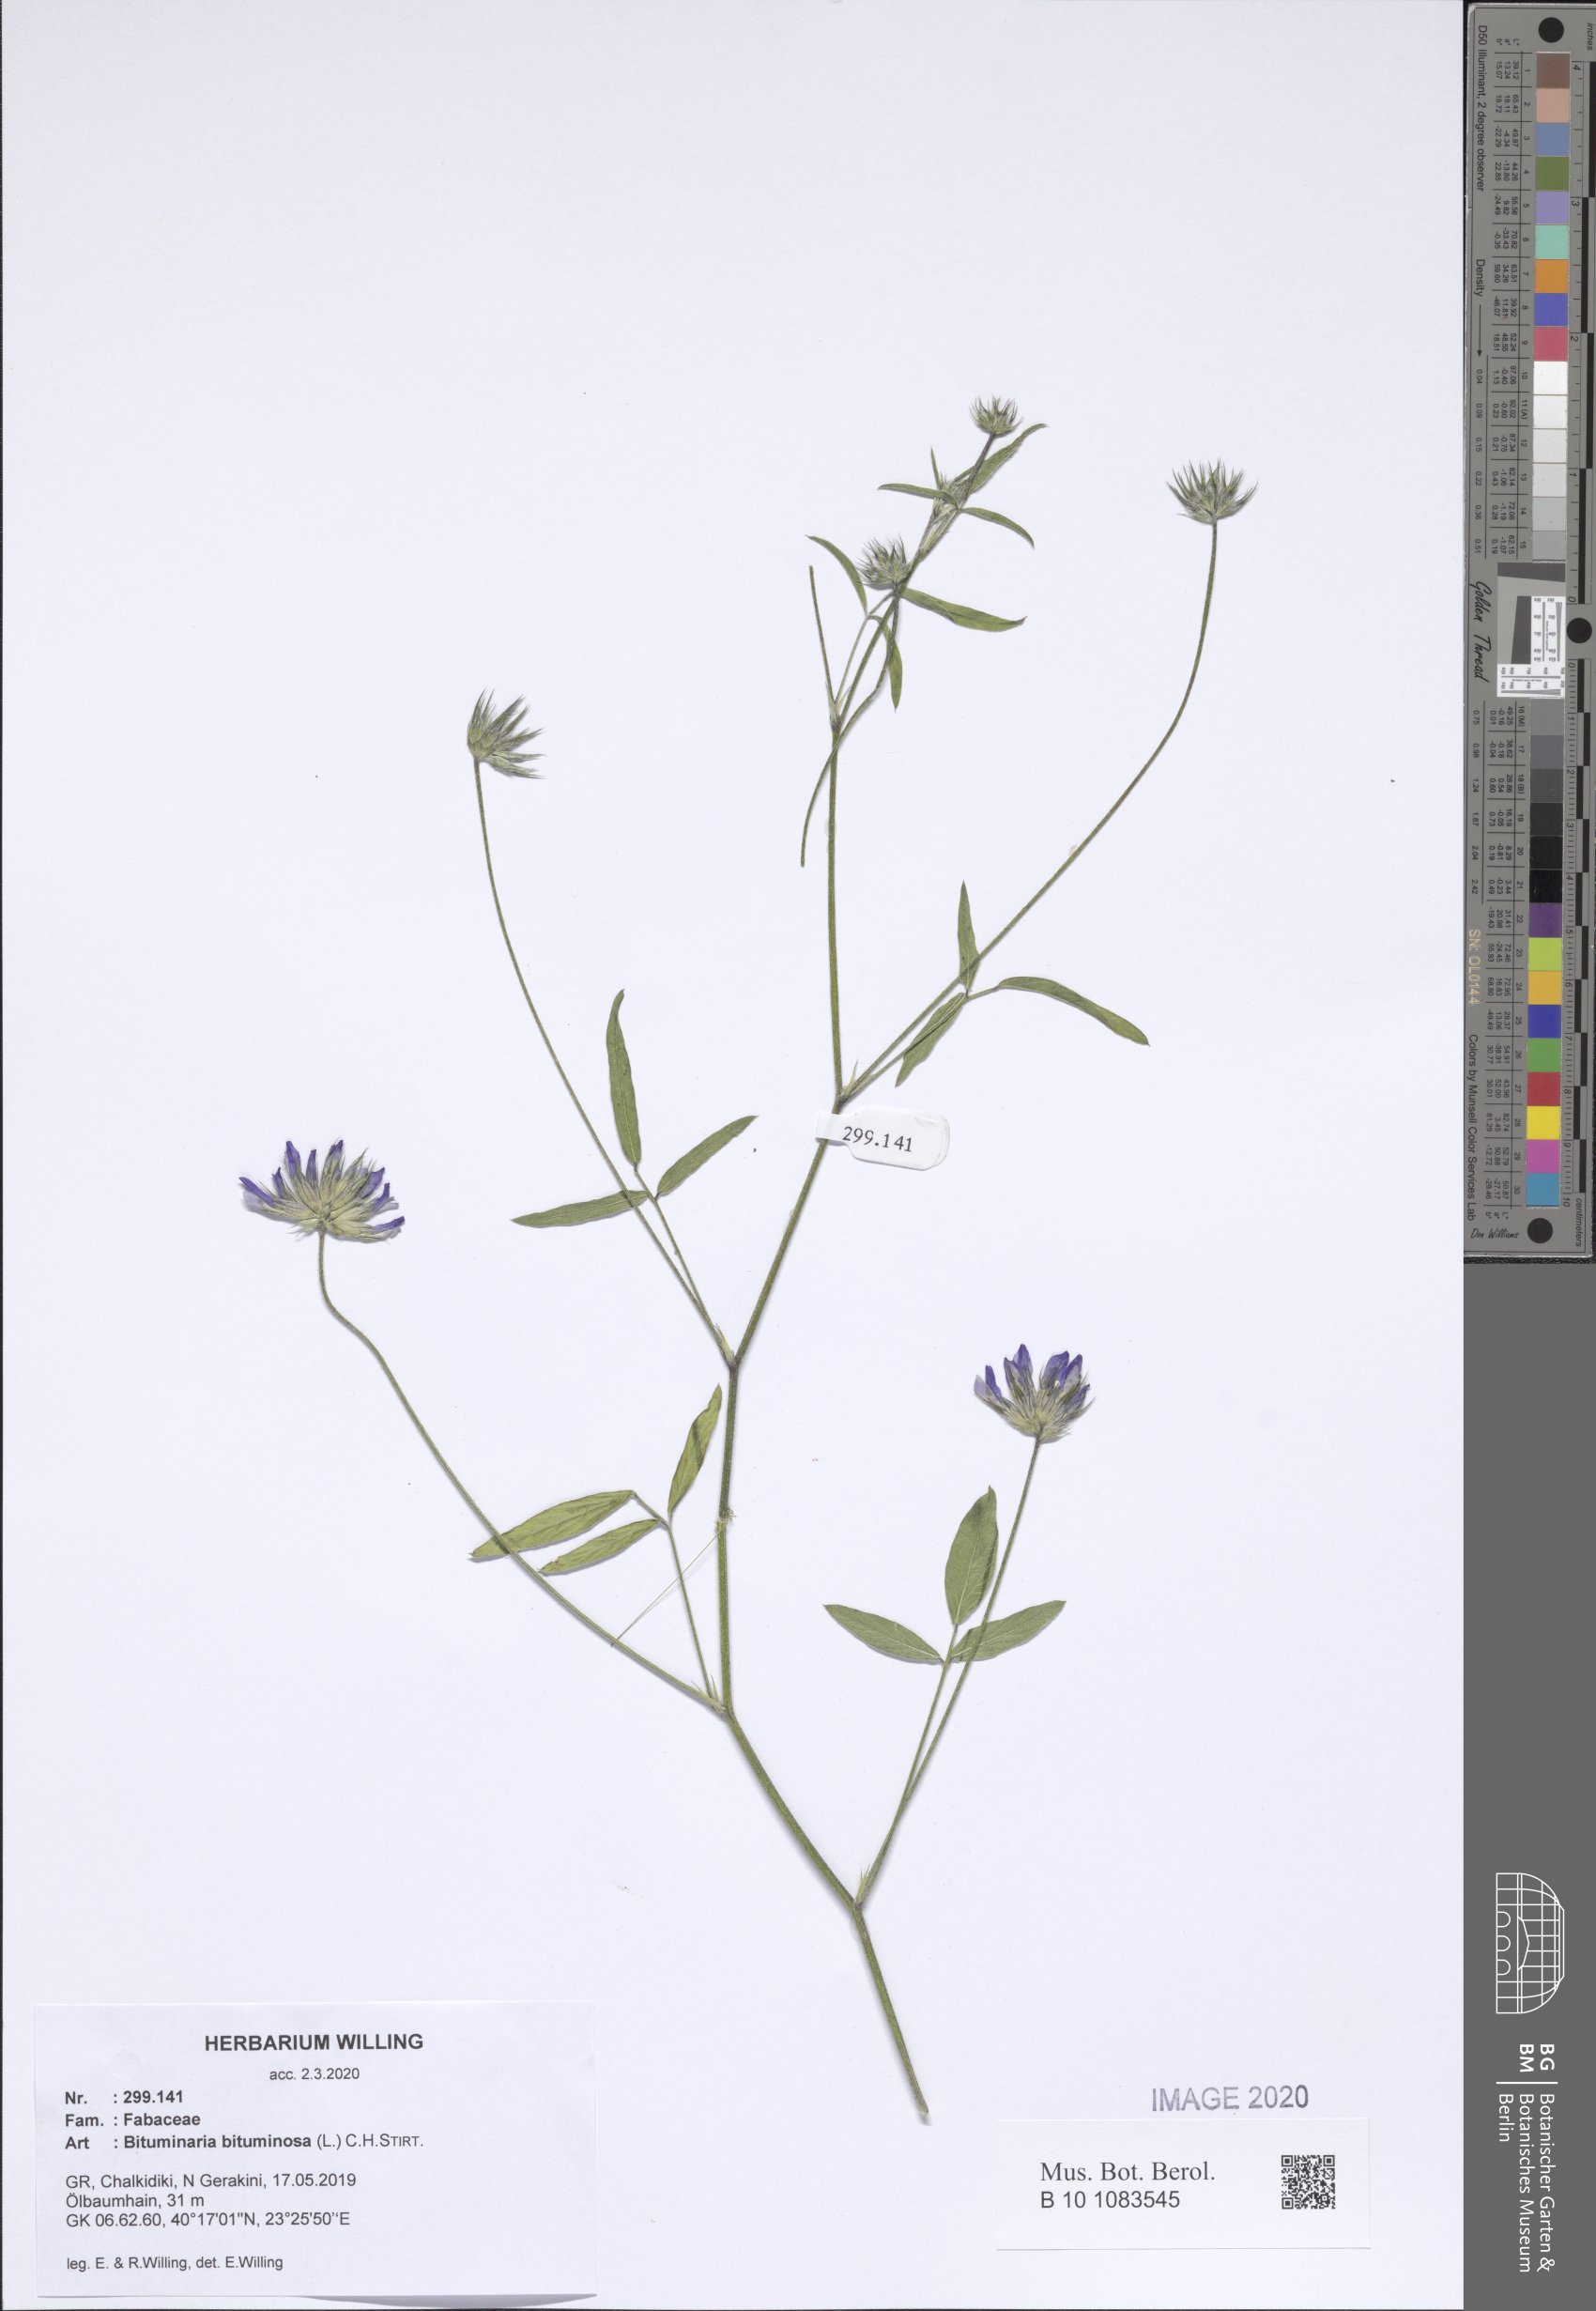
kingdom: Plantae
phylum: Tracheophyta
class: Magnoliopsida
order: Fabales
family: Fabaceae
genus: Bituminaria
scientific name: Bituminaria bituminosa
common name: Arabian pea
